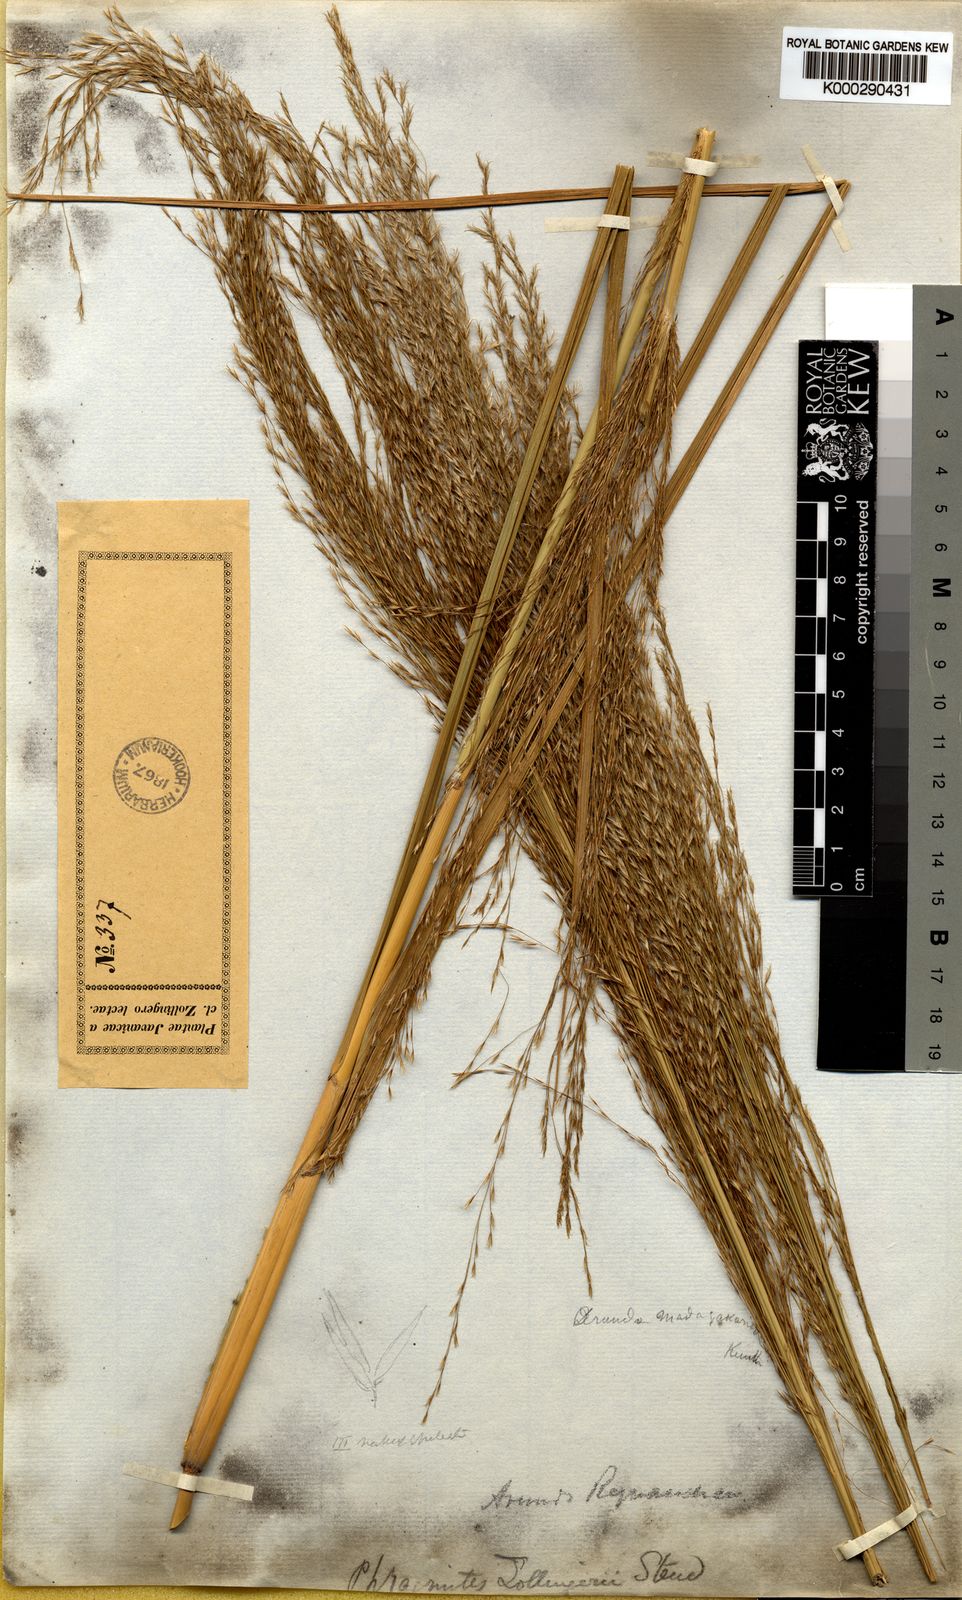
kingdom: Plantae
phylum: Tracheophyta
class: Liliopsida
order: Poales
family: Poaceae
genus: Neyraudia
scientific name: Neyraudia reynaudiana
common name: Silkreed
